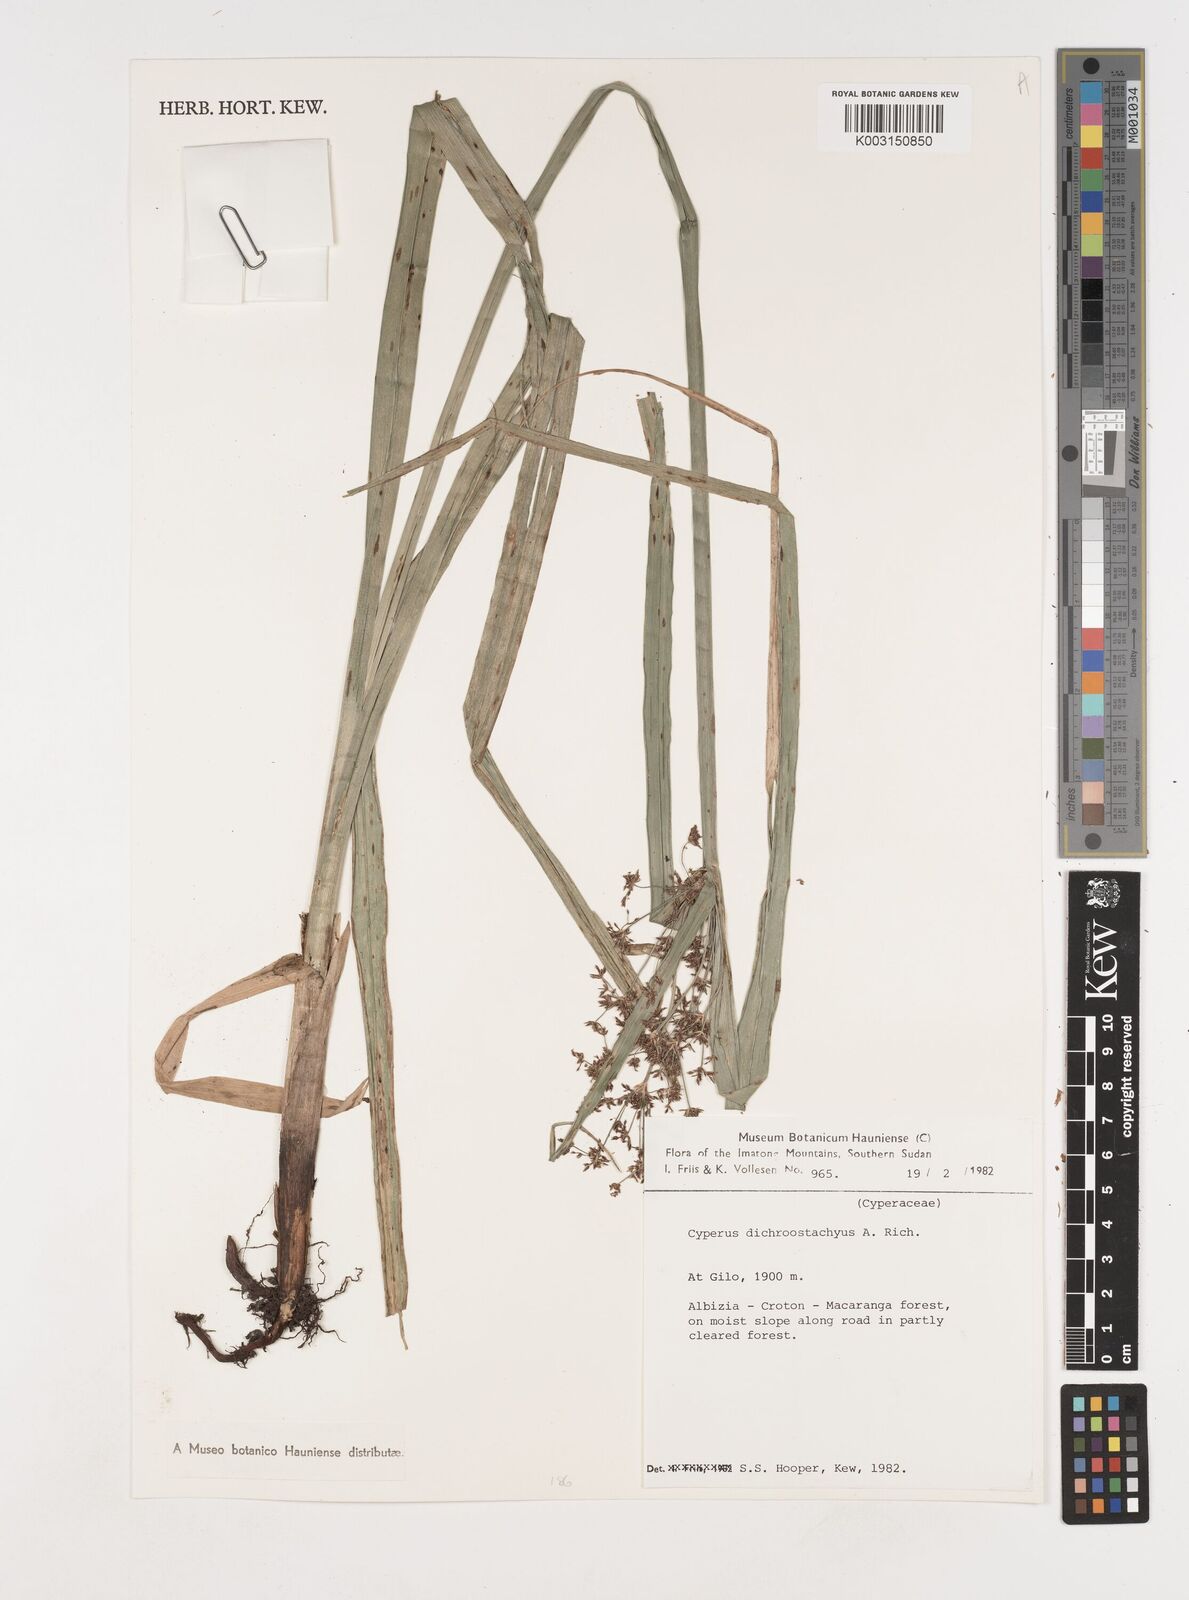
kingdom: Plantae
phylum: Tracheophyta
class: Liliopsida
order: Poales
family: Cyperaceae
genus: Cyperus
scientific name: Cyperus dichrostachyus
